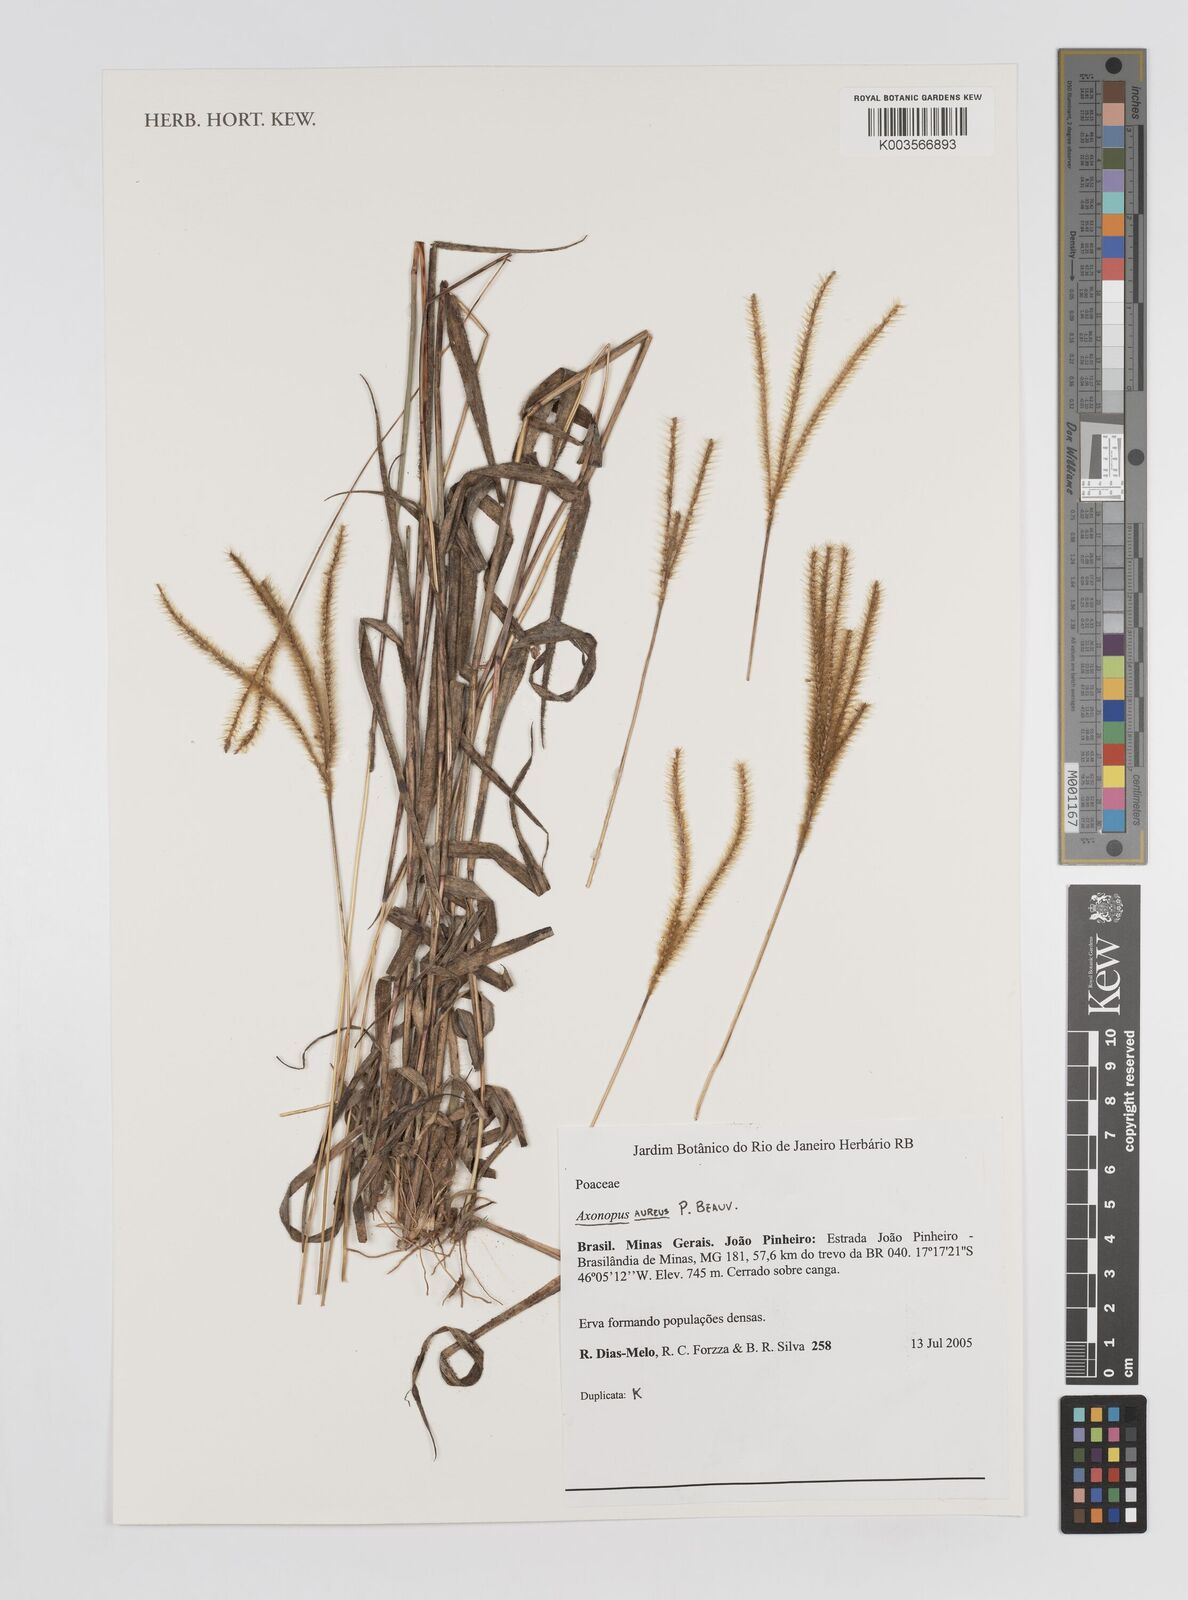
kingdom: Plantae
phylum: Tracheophyta
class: Liliopsida
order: Poales
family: Poaceae
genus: Axonopus
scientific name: Axonopus aureus
